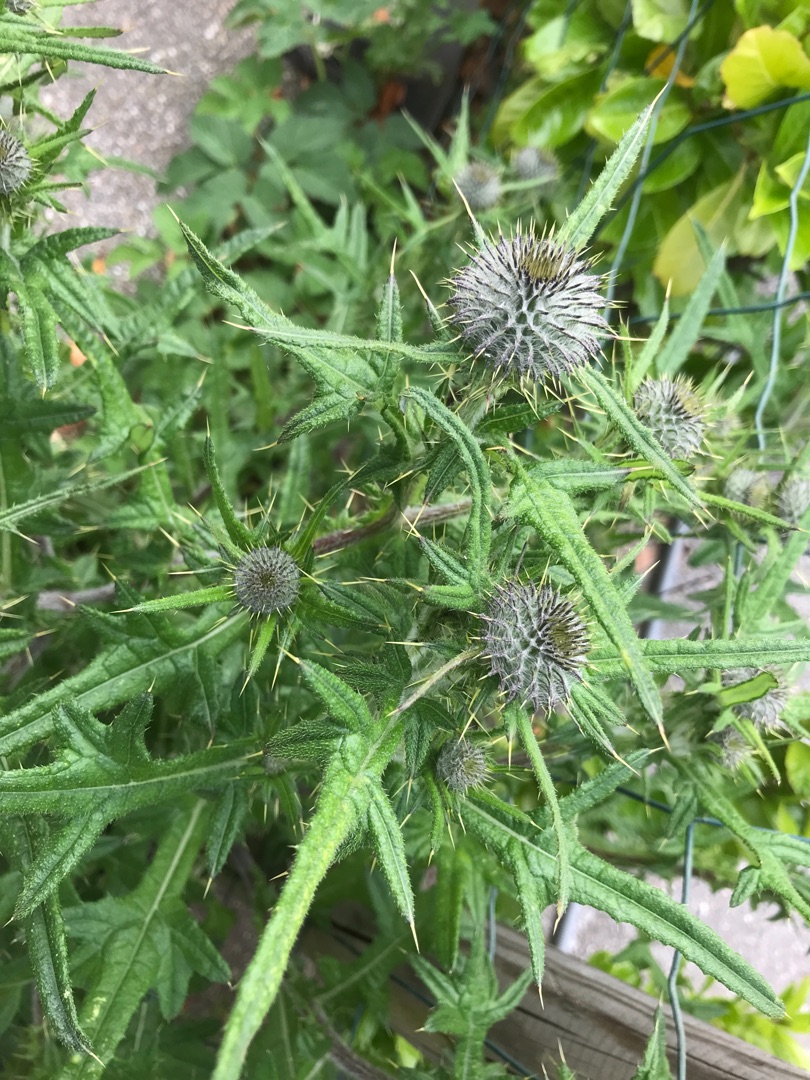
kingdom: Plantae
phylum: Tracheophyta
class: Magnoliopsida
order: Asterales
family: Asteraceae
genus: Cirsium
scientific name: Cirsium vulgare
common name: Horse-tidsel
